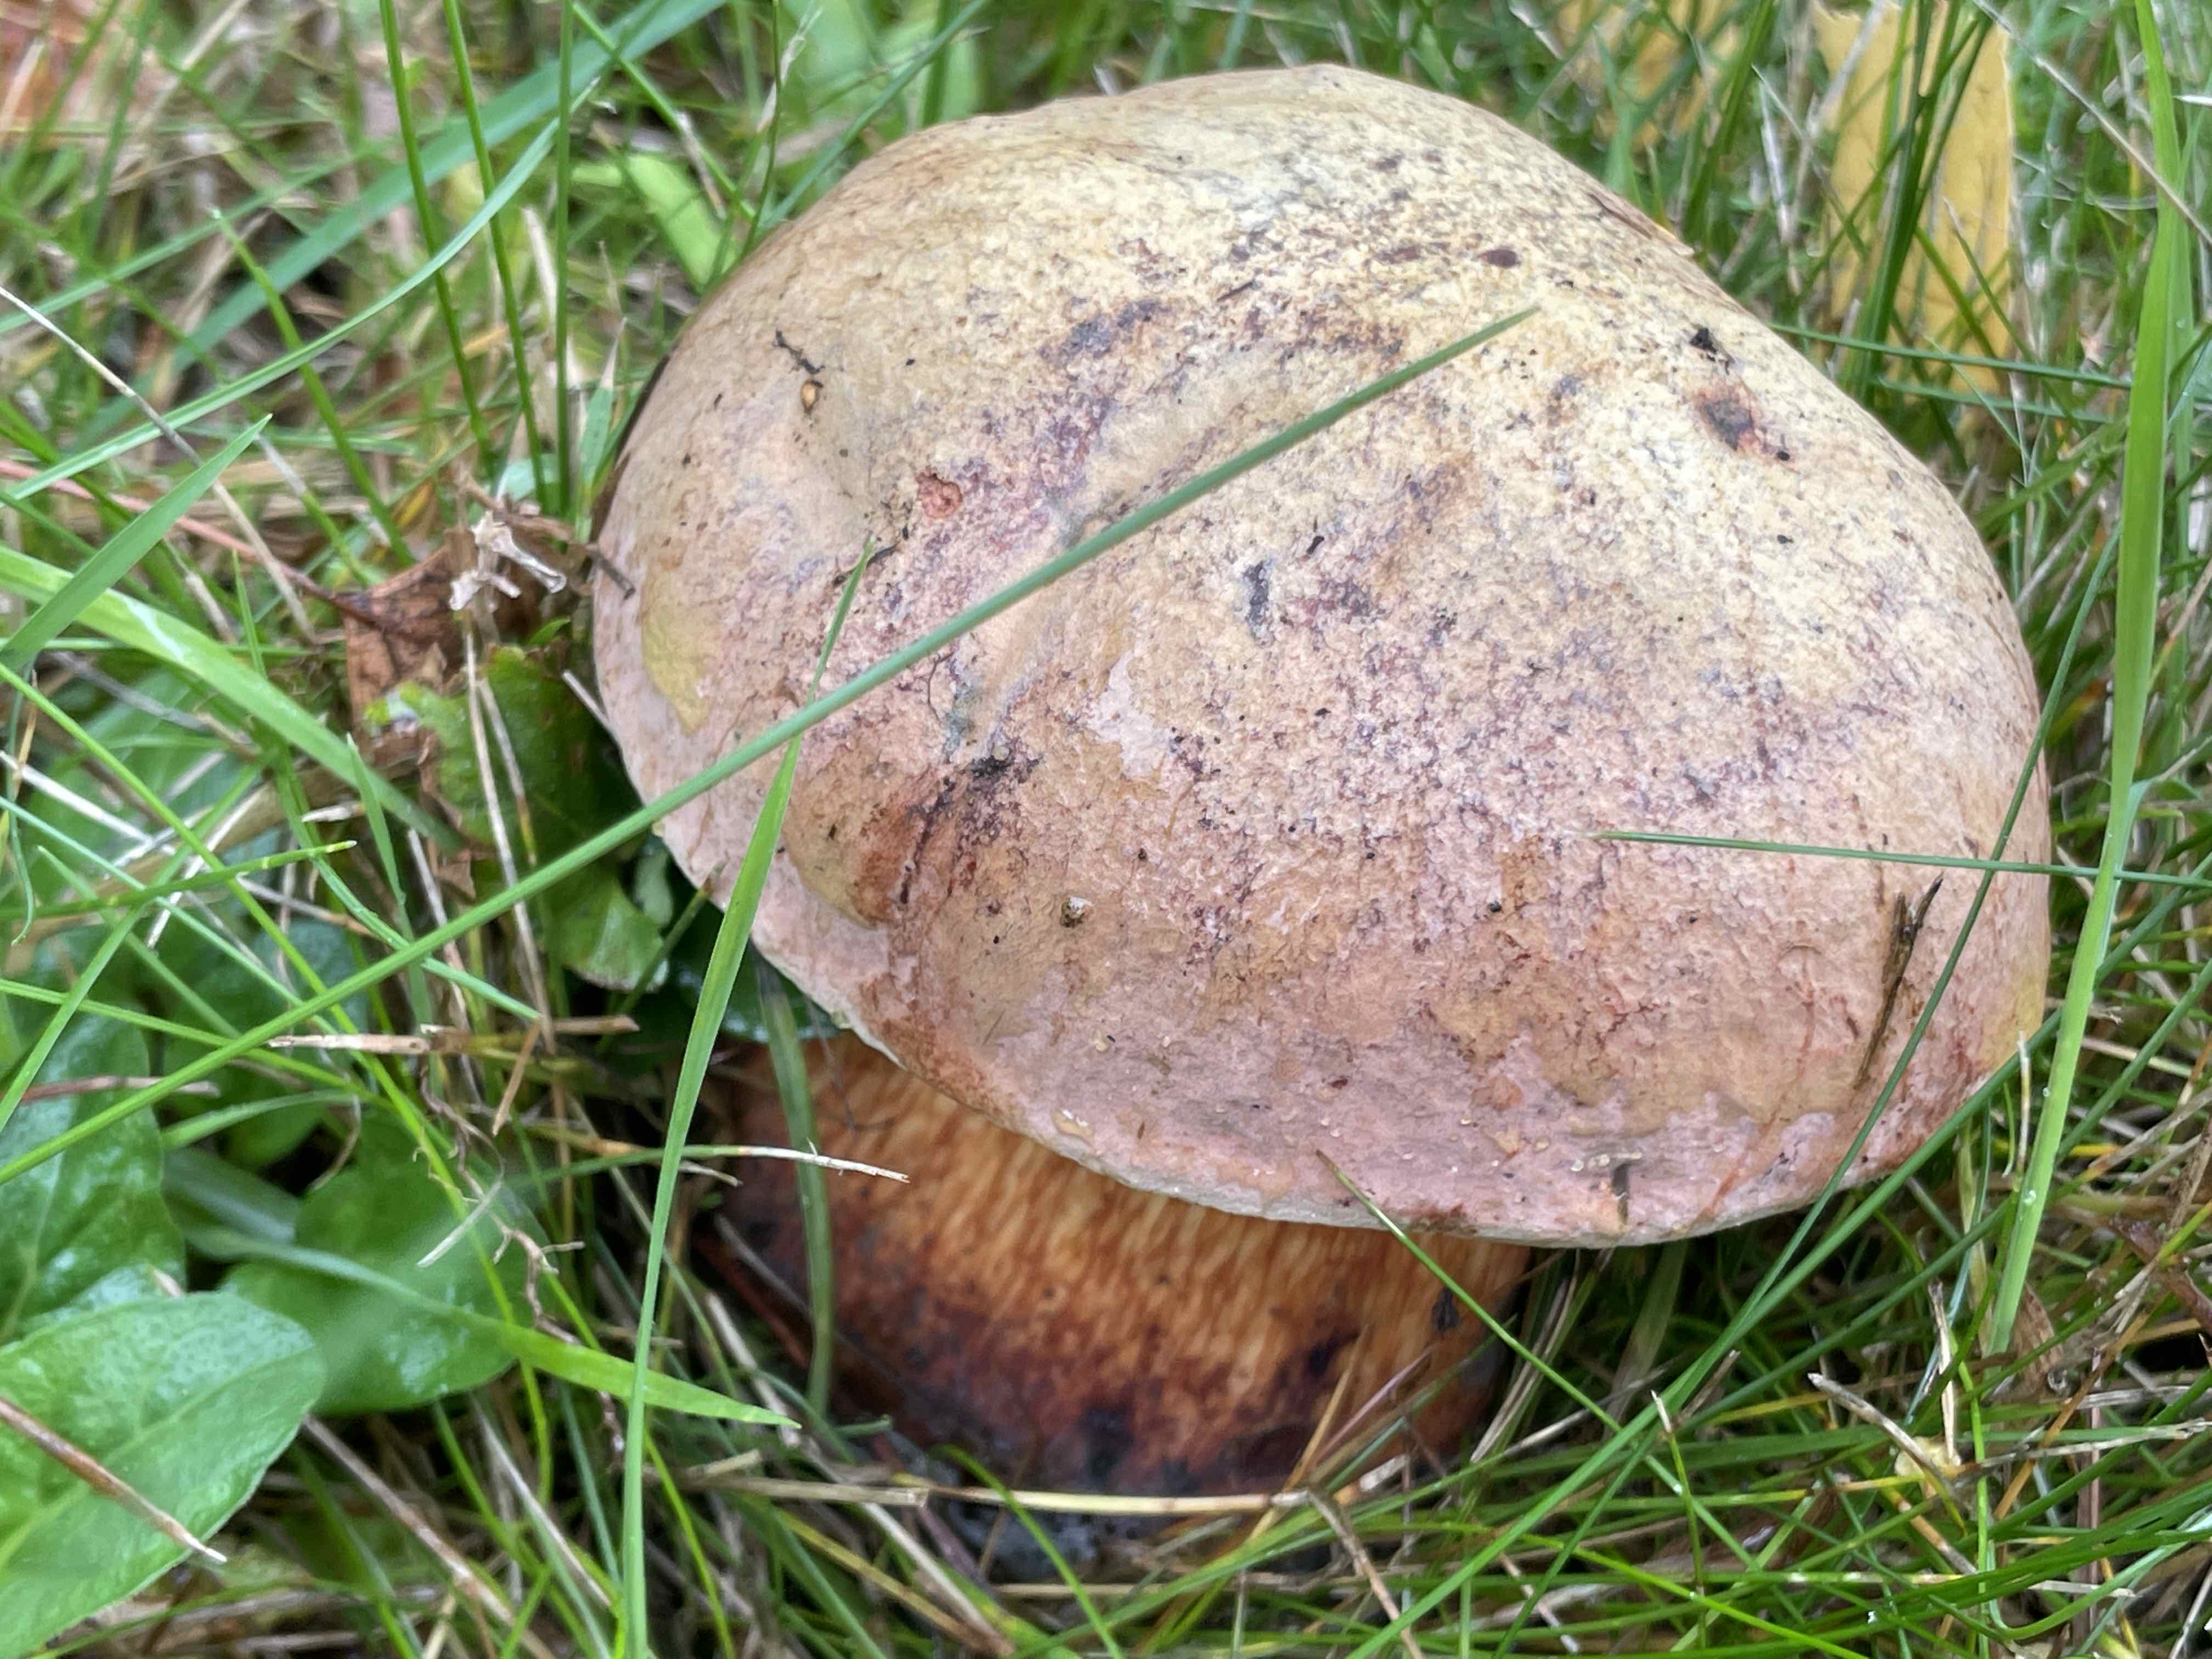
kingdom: Fungi
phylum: Basidiomycota
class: Agaricomycetes
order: Boletales
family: Boletaceae
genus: Suillellus
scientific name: Suillellus luridus
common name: netstokket indigorørhat
